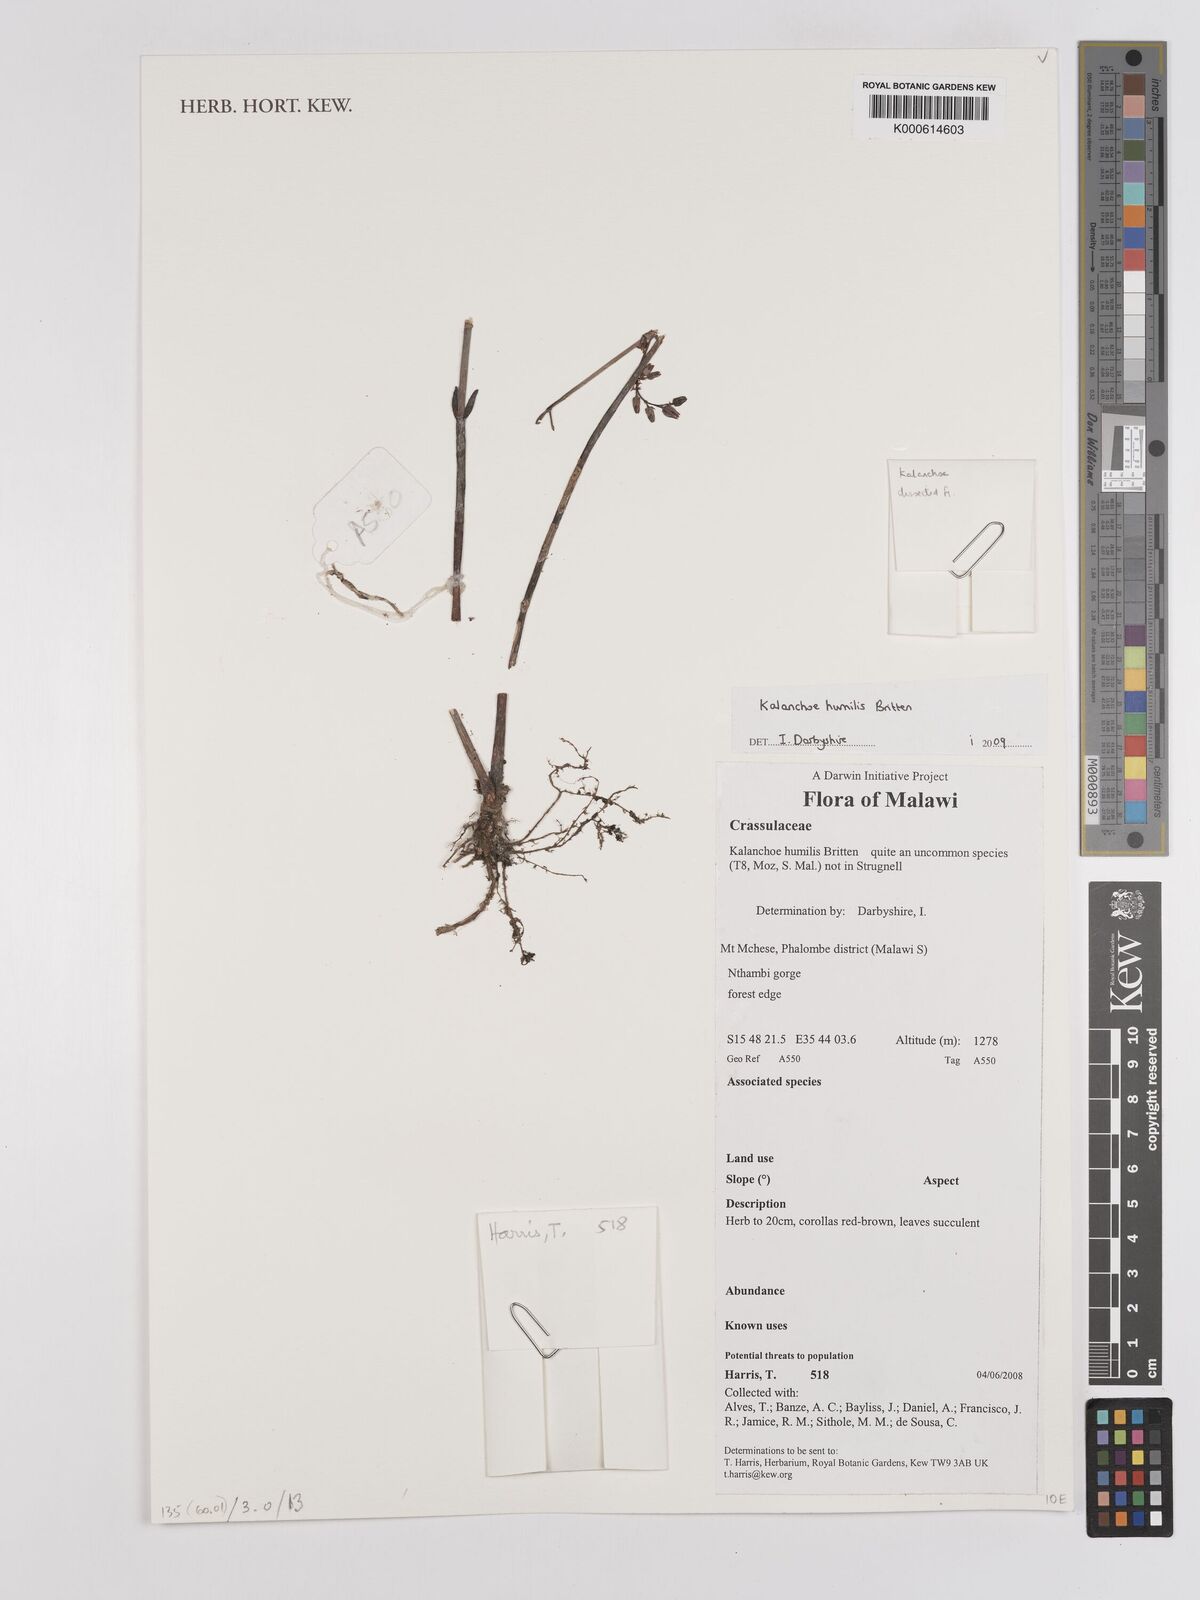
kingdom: Plantae
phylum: Tracheophyta
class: Magnoliopsida
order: Saxifragales
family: Crassulaceae
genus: Kalanchoe
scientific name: Kalanchoe humilis
